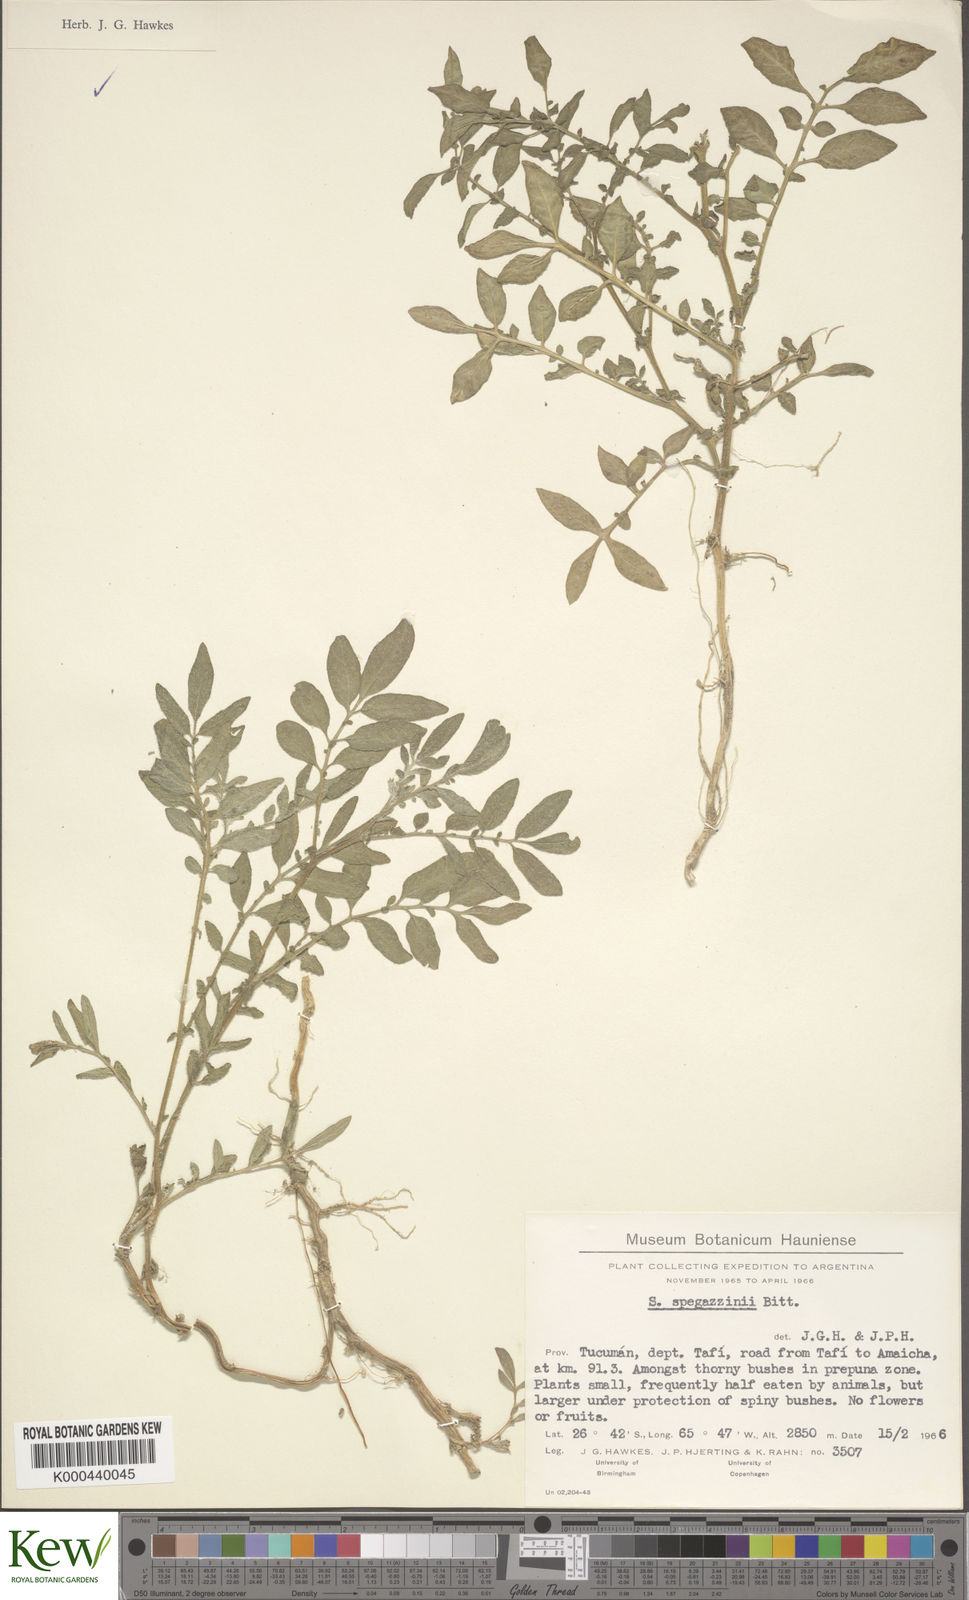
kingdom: Plantae
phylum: Tracheophyta
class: Magnoliopsida
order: Solanales
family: Solanaceae
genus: Solanum
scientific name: Solanum brevicaule
